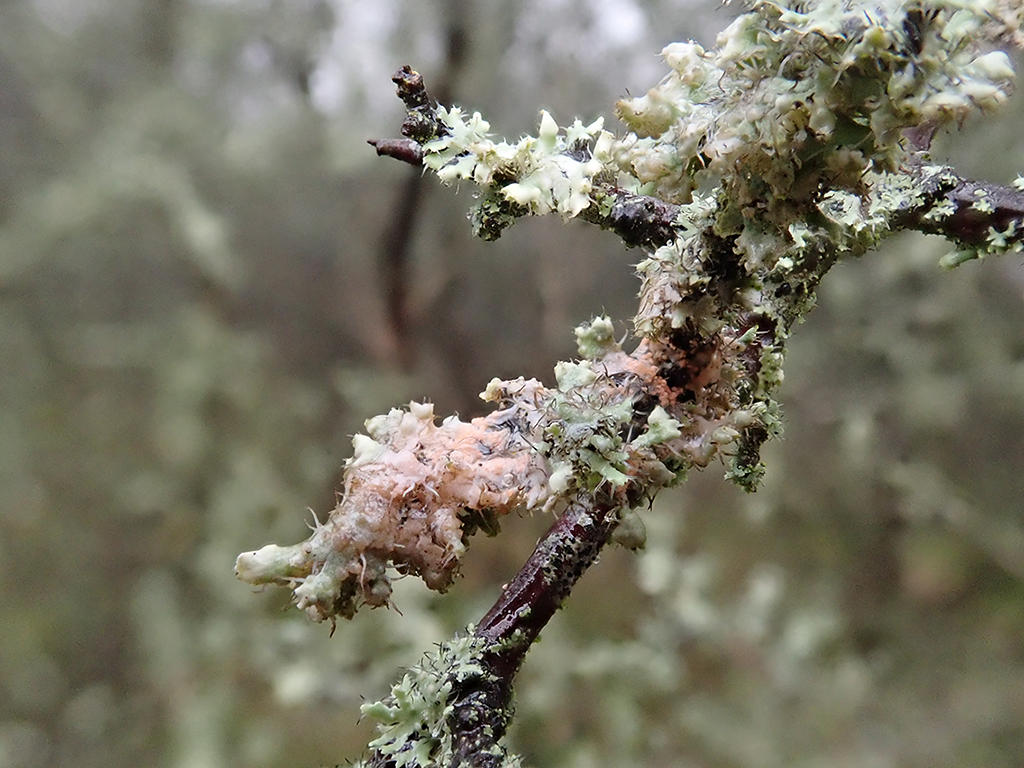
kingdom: Fungi
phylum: Basidiomycota
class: Agaricomycetes
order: Corticiales
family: Corticiaceae
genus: Erythricium
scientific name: Erythricium aurantiacum
